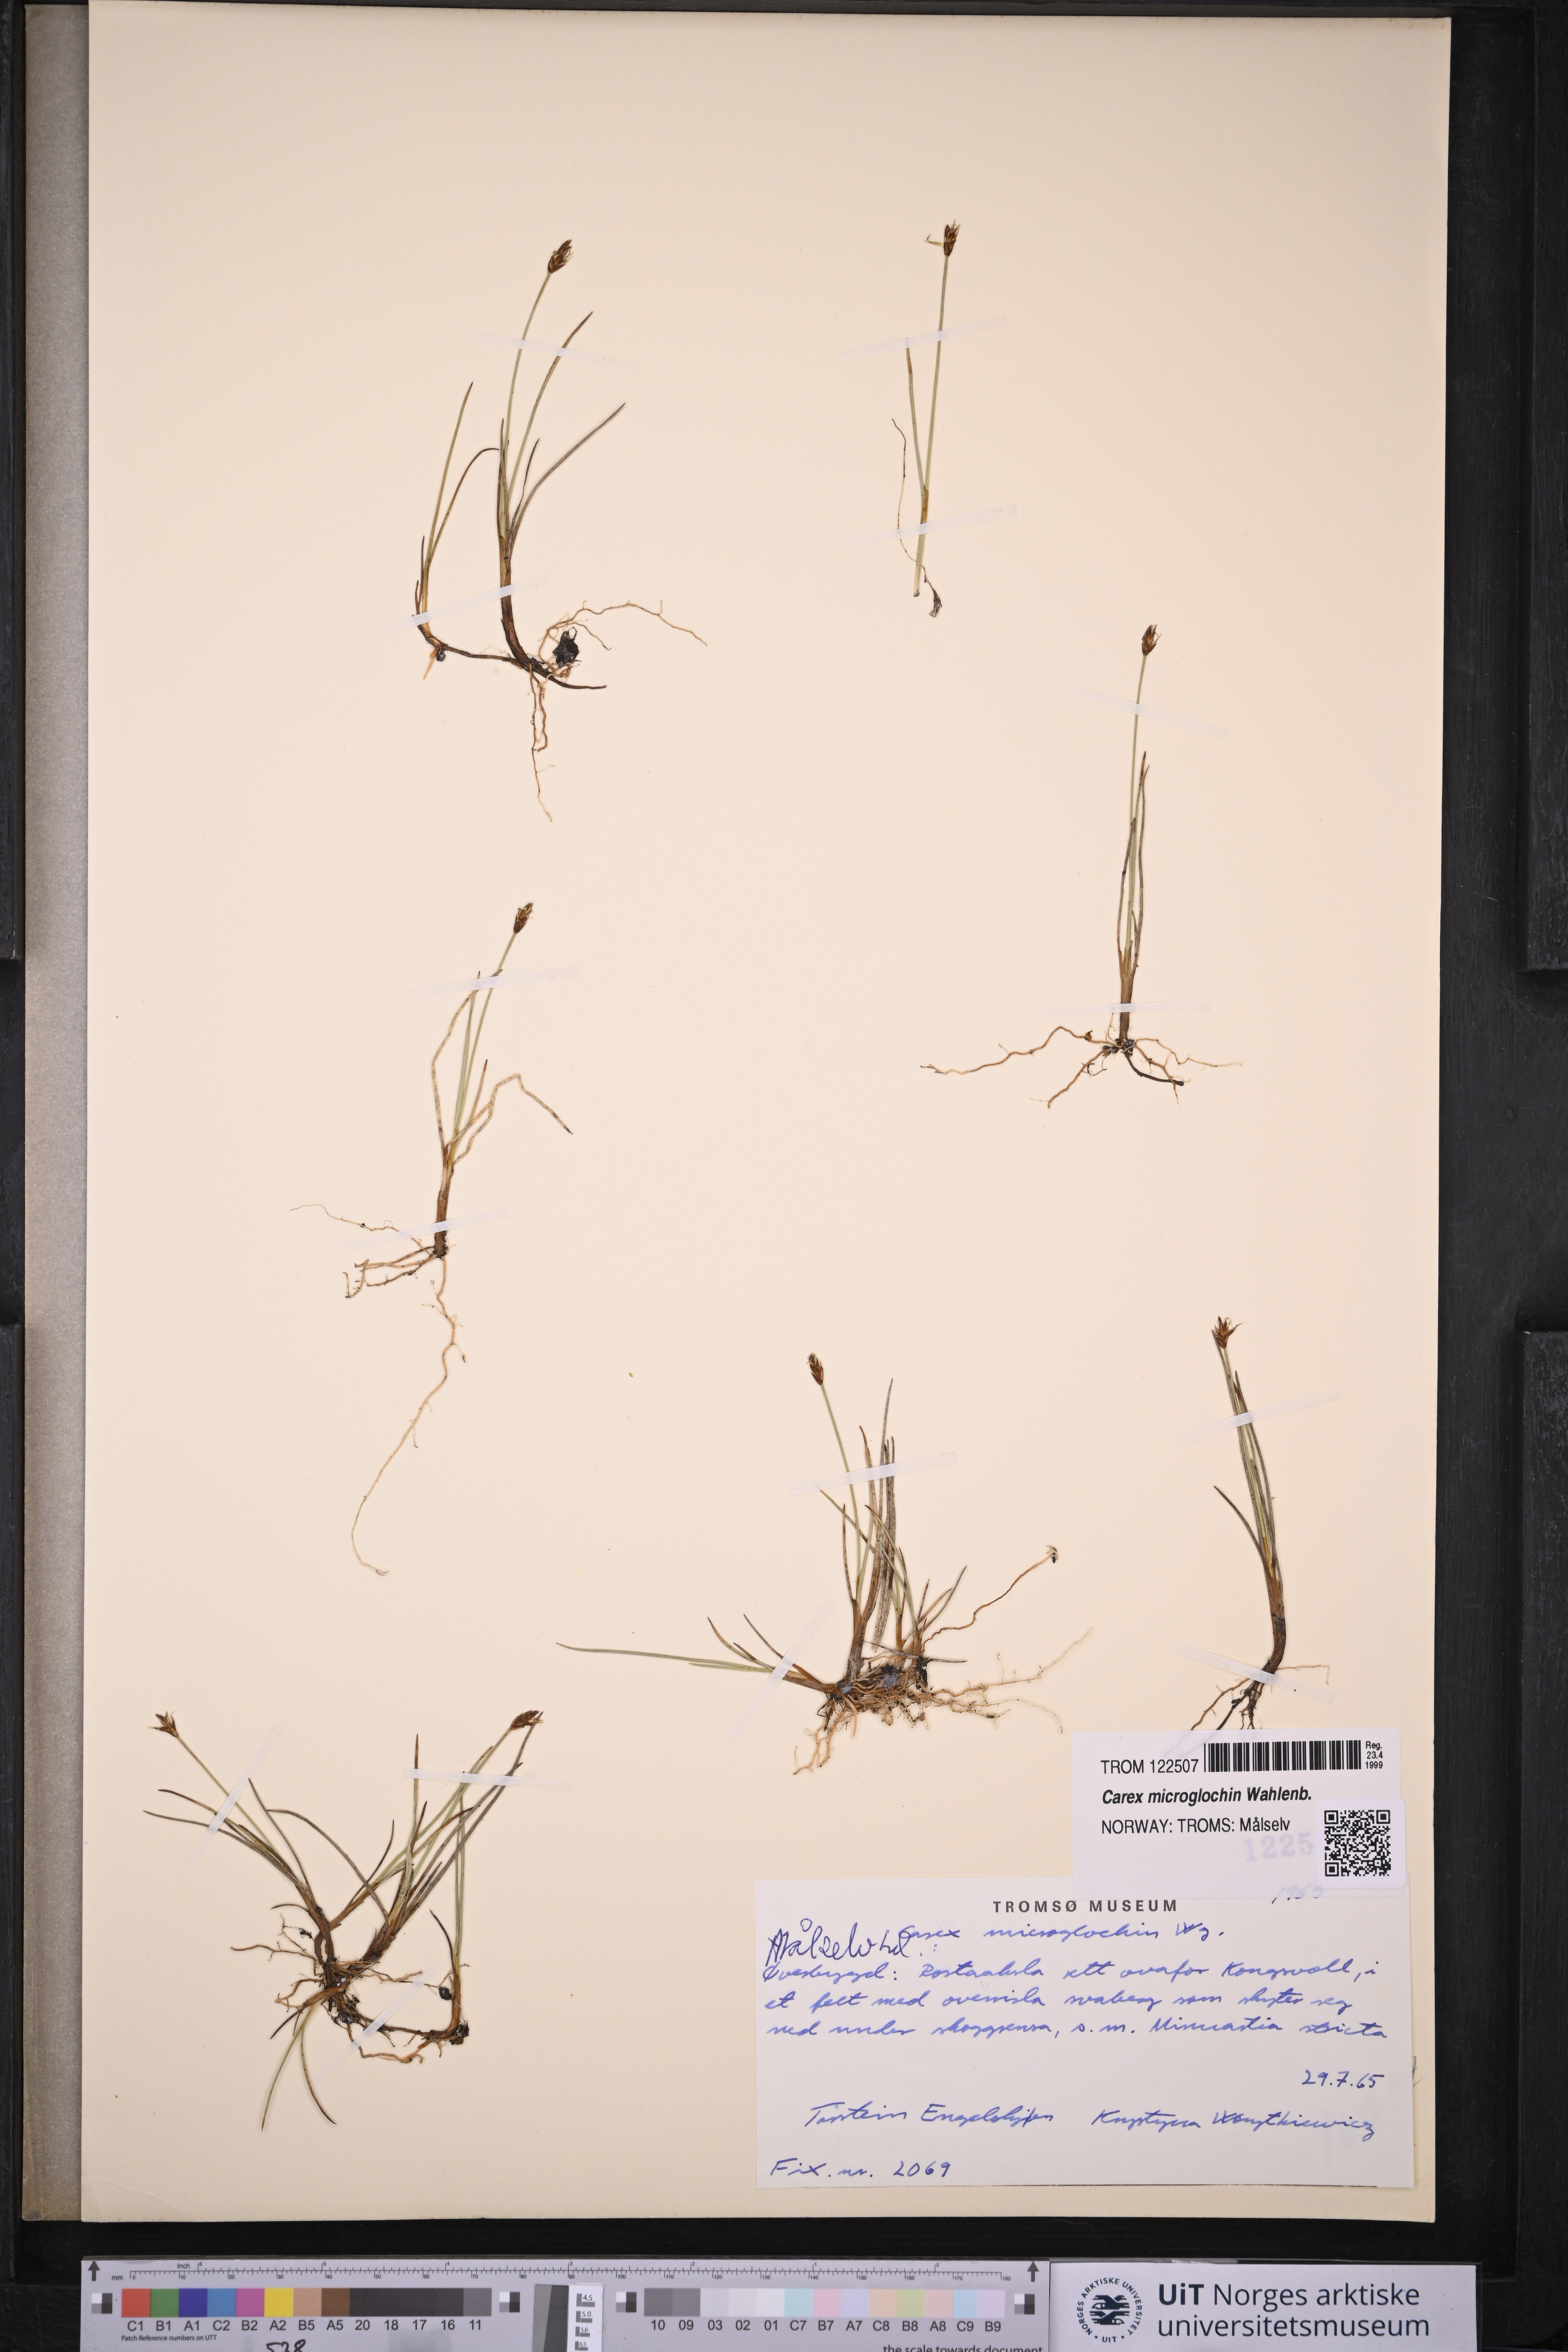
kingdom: Plantae
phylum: Tracheophyta
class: Liliopsida
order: Poales
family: Cyperaceae
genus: Carex
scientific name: Carex microglochin
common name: Bristle sedge
